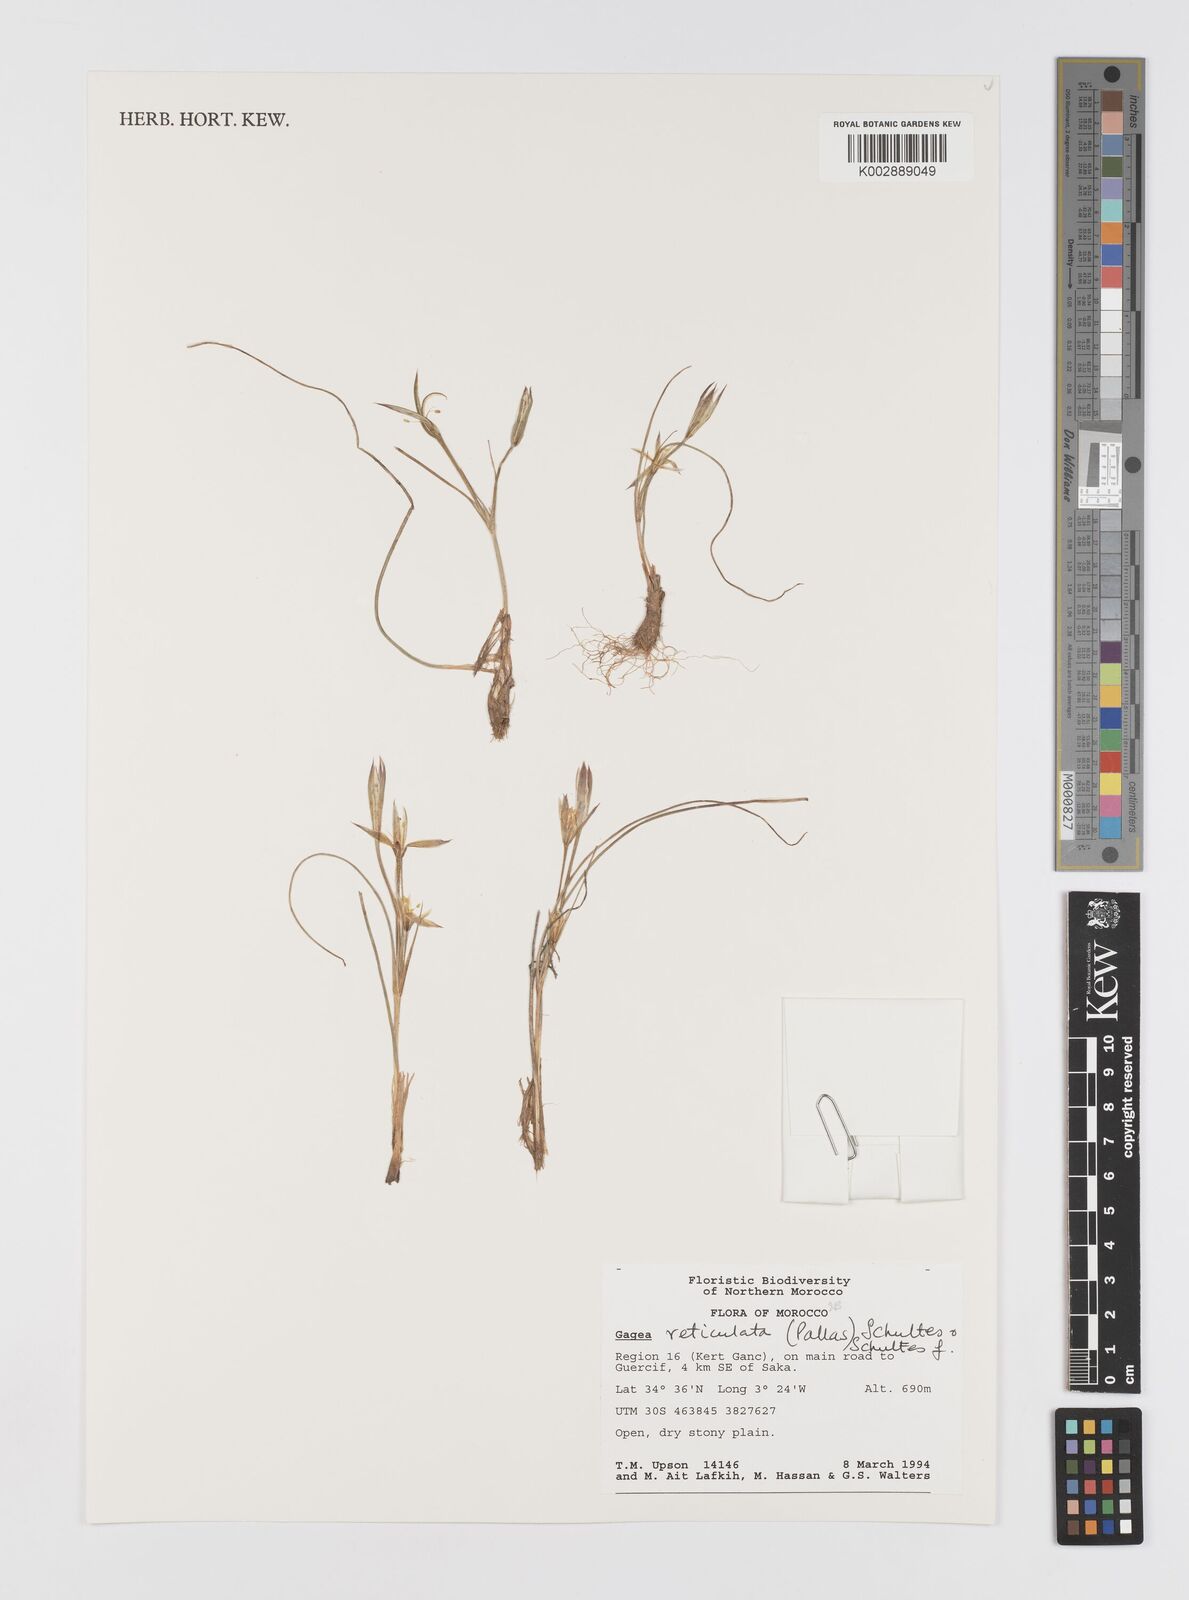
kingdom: Plantae
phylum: Tracheophyta
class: Liliopsida
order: Liliales
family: Liliaceae
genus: Gagea
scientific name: Gagea reticulata
